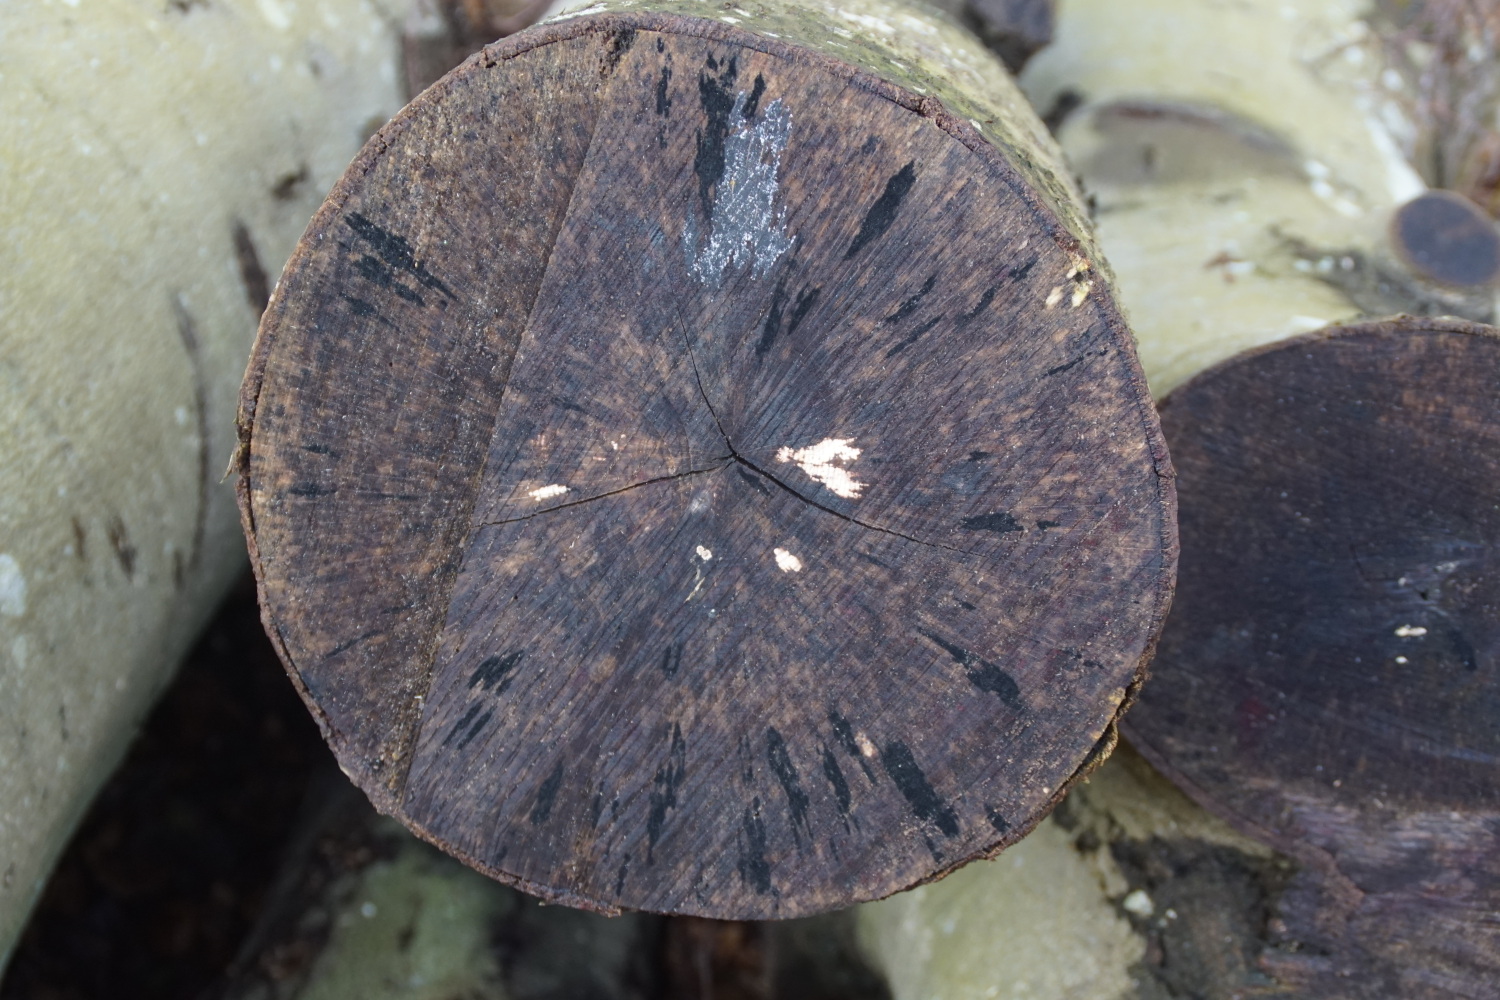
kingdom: Fungi
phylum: Ascomycota
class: Leotiomycetes
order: Helotiales
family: Helotiaceae
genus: Bispora
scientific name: Bispora pallescens
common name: måtte-snitskive
